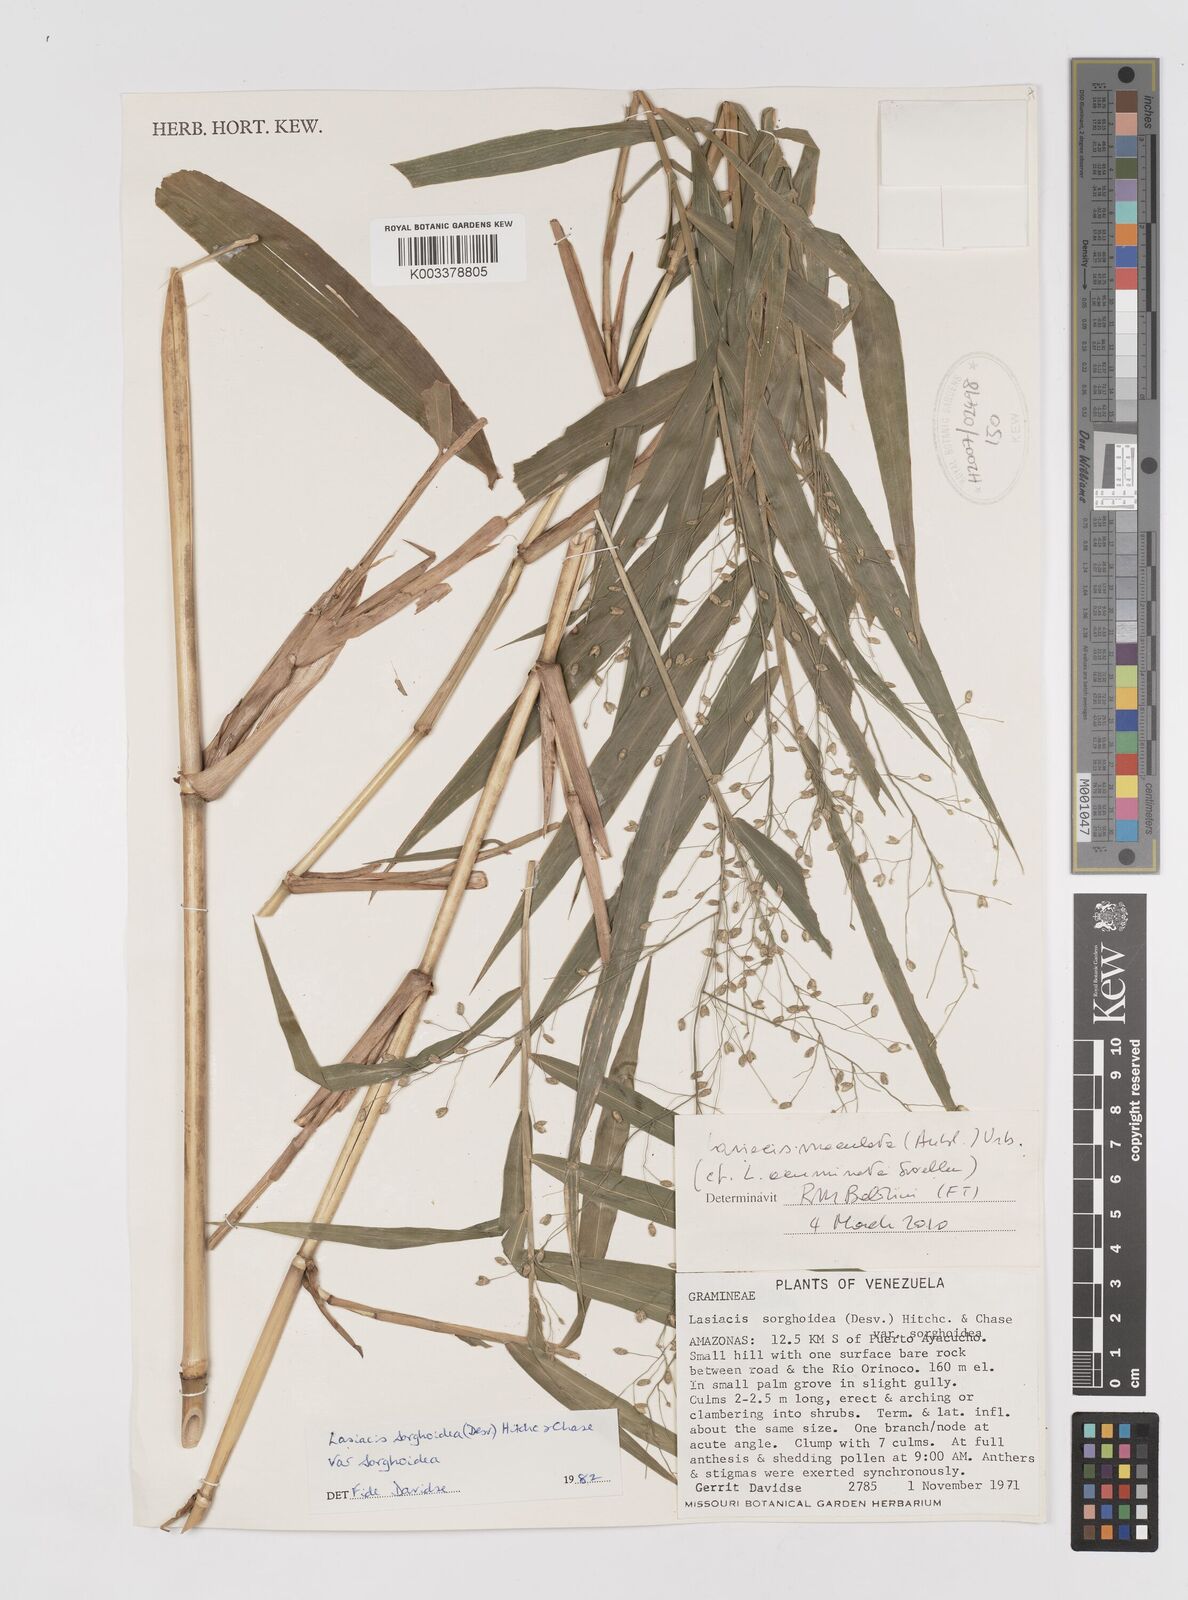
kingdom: Plantae
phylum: Tracheophyta
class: Liliopsida
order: Poales
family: Poaceae
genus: Lasiacis
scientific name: Lasiacis
